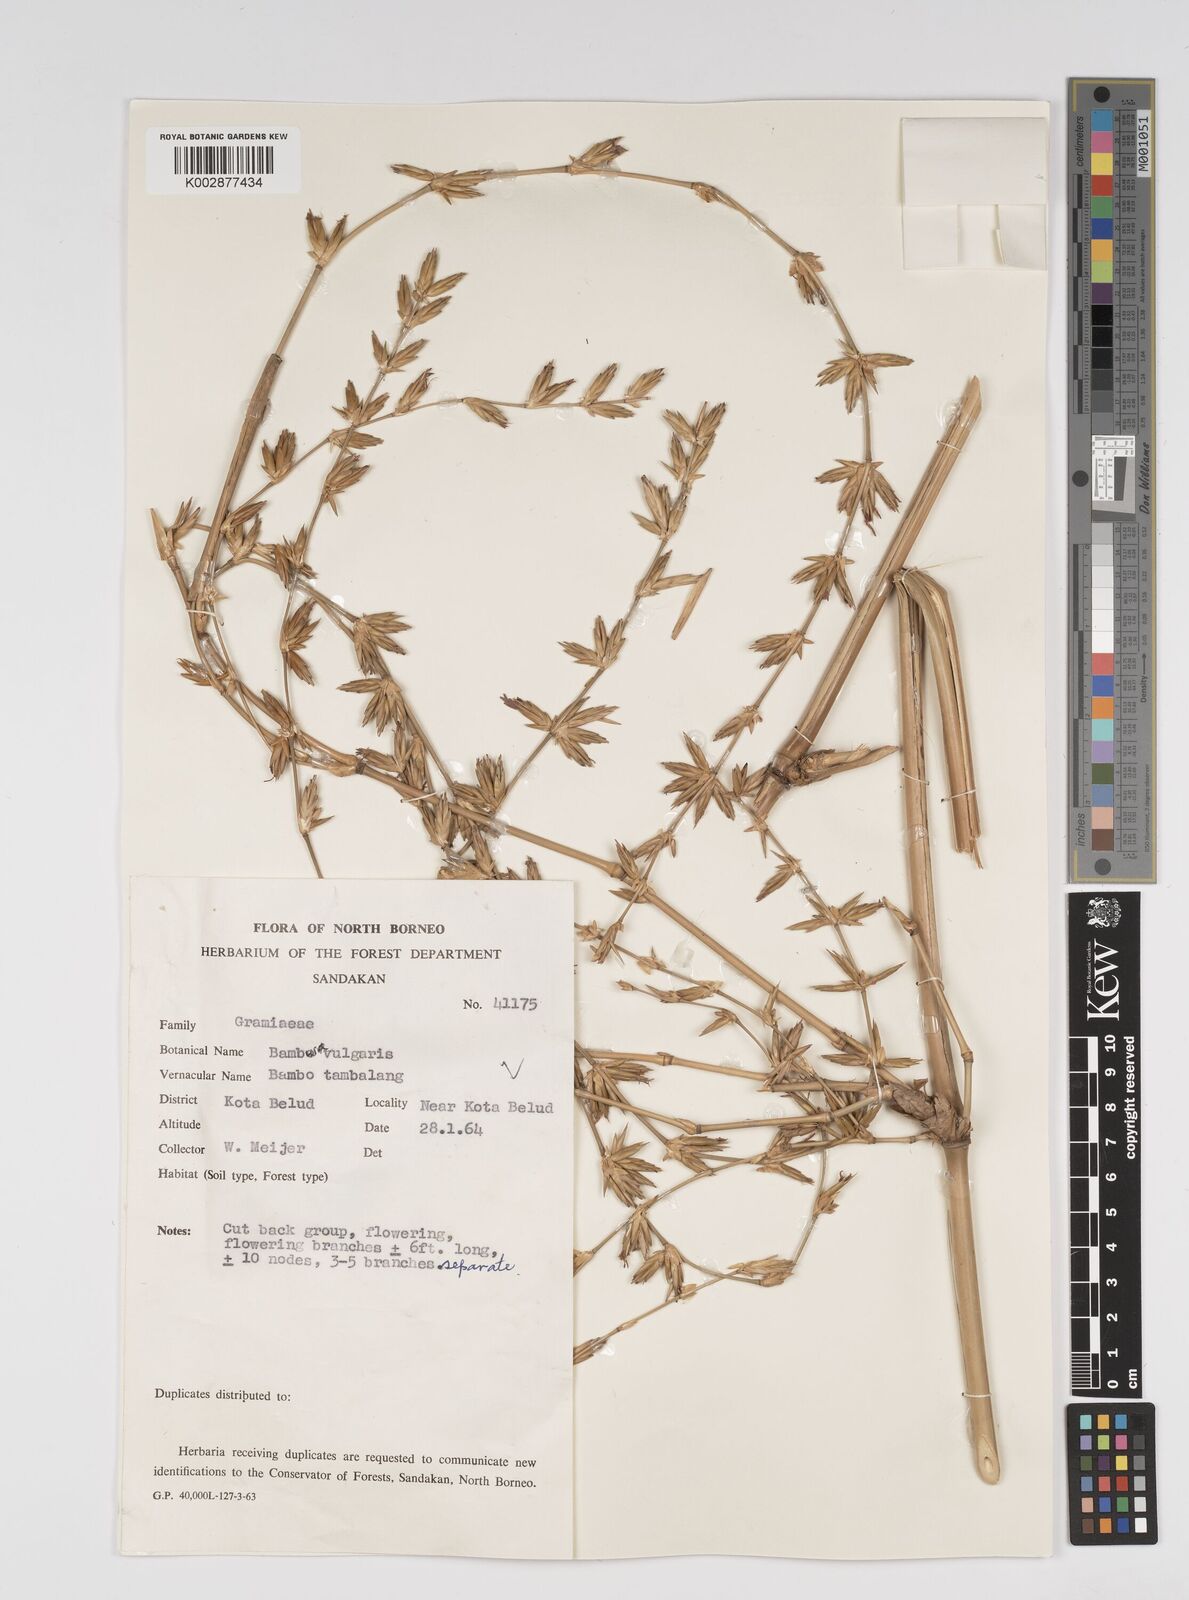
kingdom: Plantae
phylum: Tracheophyta
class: Liliopsida
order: Poales
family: Poaceae
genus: Bambusa
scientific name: Bambusa vulgaris
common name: Common bamboo
